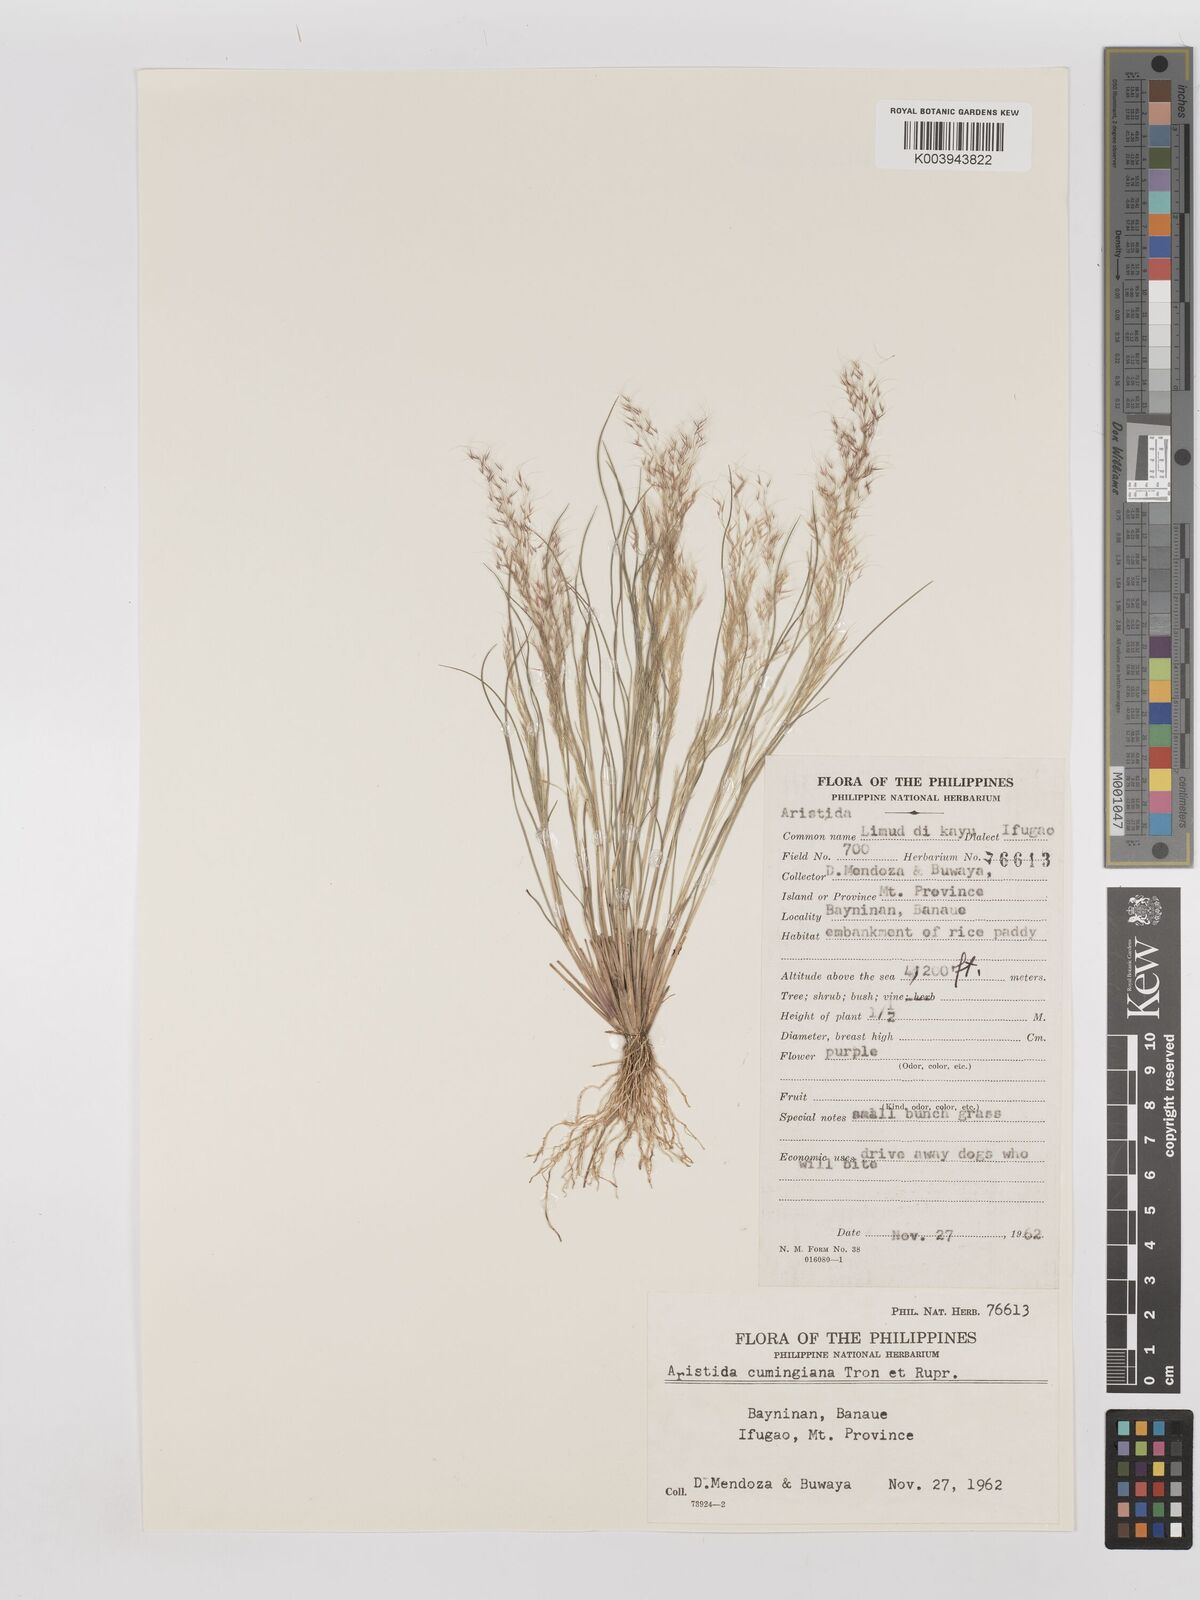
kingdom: Plantae
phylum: Tracheophyta
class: Liliopsida
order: Poales
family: Poaceae
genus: Aristida
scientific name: Aristida cumingiana
